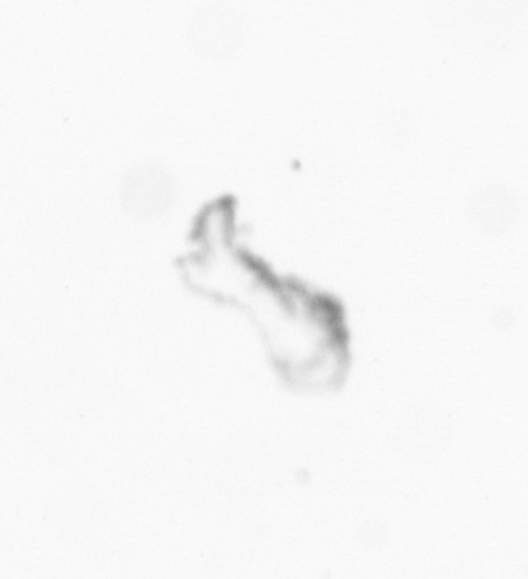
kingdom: Chromista
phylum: Ochrophyta
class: Bacillariophyceae
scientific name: Bacillariophyceae
